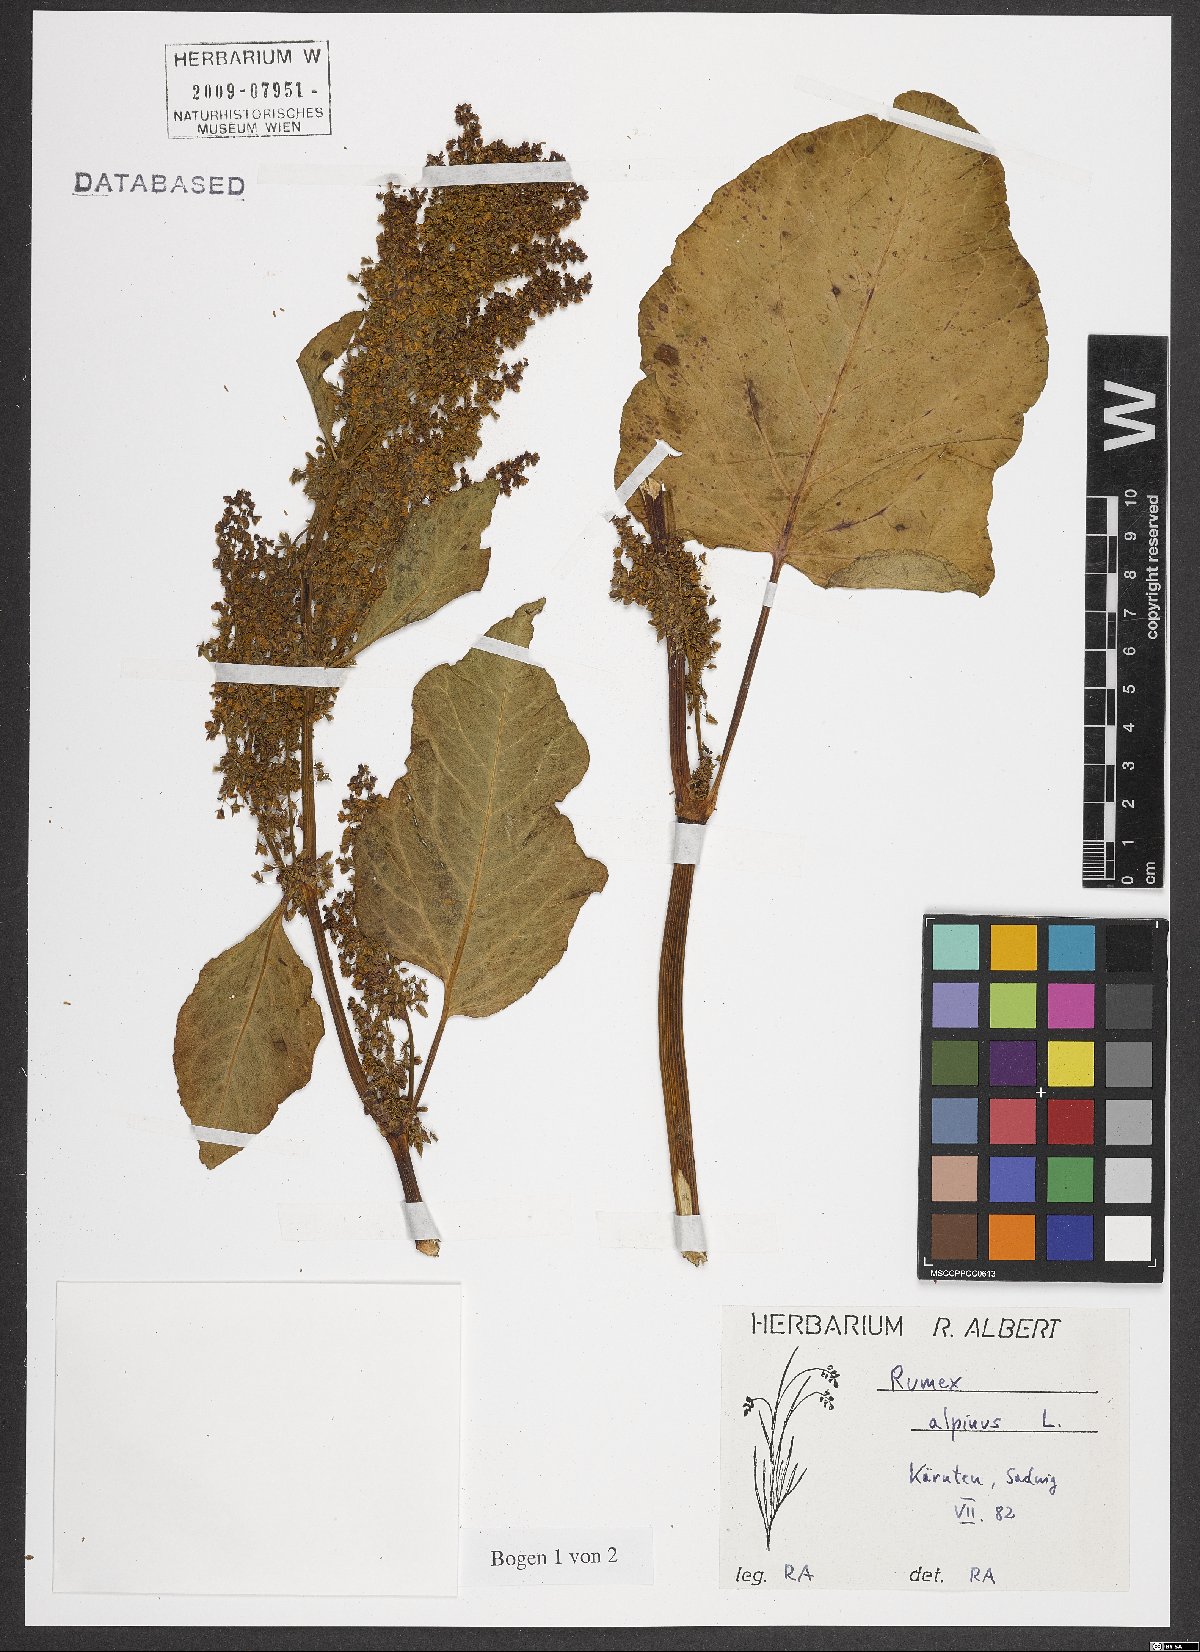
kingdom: Plantae
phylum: Tracheophyta
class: Magnoliopsida
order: Caryophyllales
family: Polygonaceae
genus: Rumex
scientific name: Rumex alpinus
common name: Alpine dock
